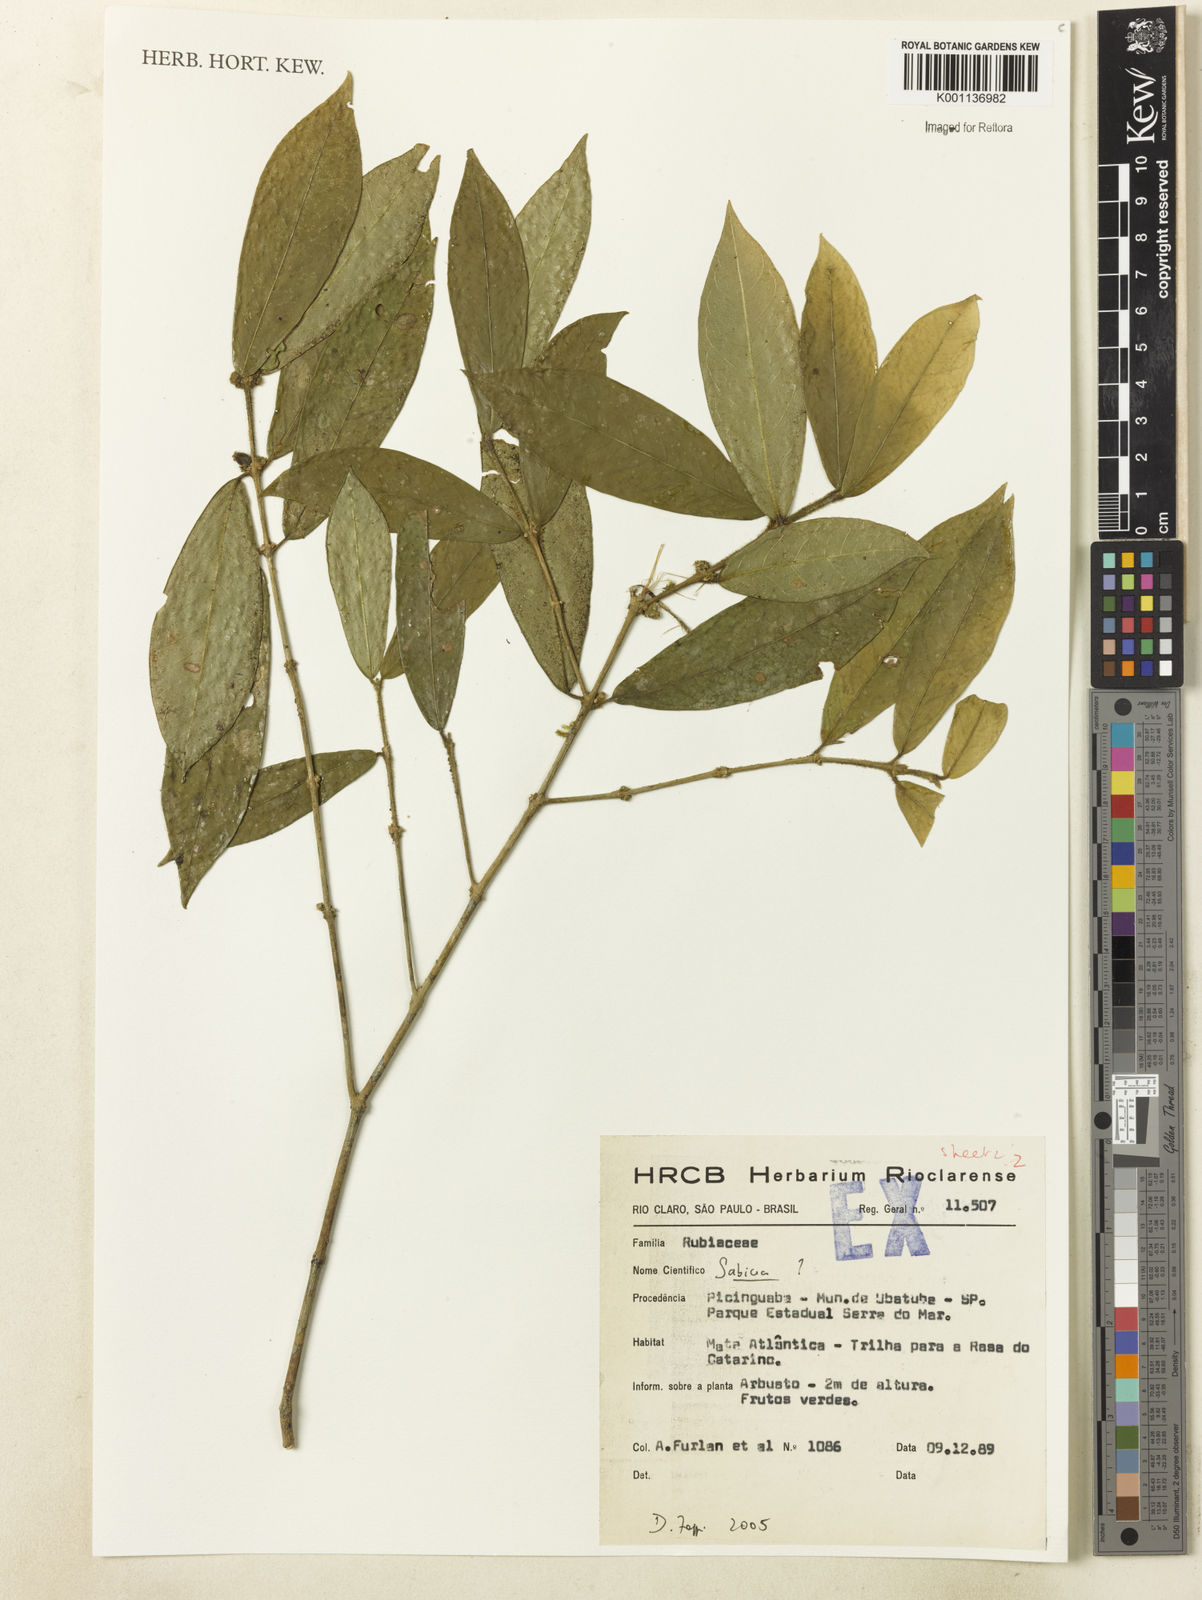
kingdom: Plantae
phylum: Tracheophyta
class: Magnoliopsida
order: Gentianales
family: Rubiaceae
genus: Sabicea
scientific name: Sabicea
